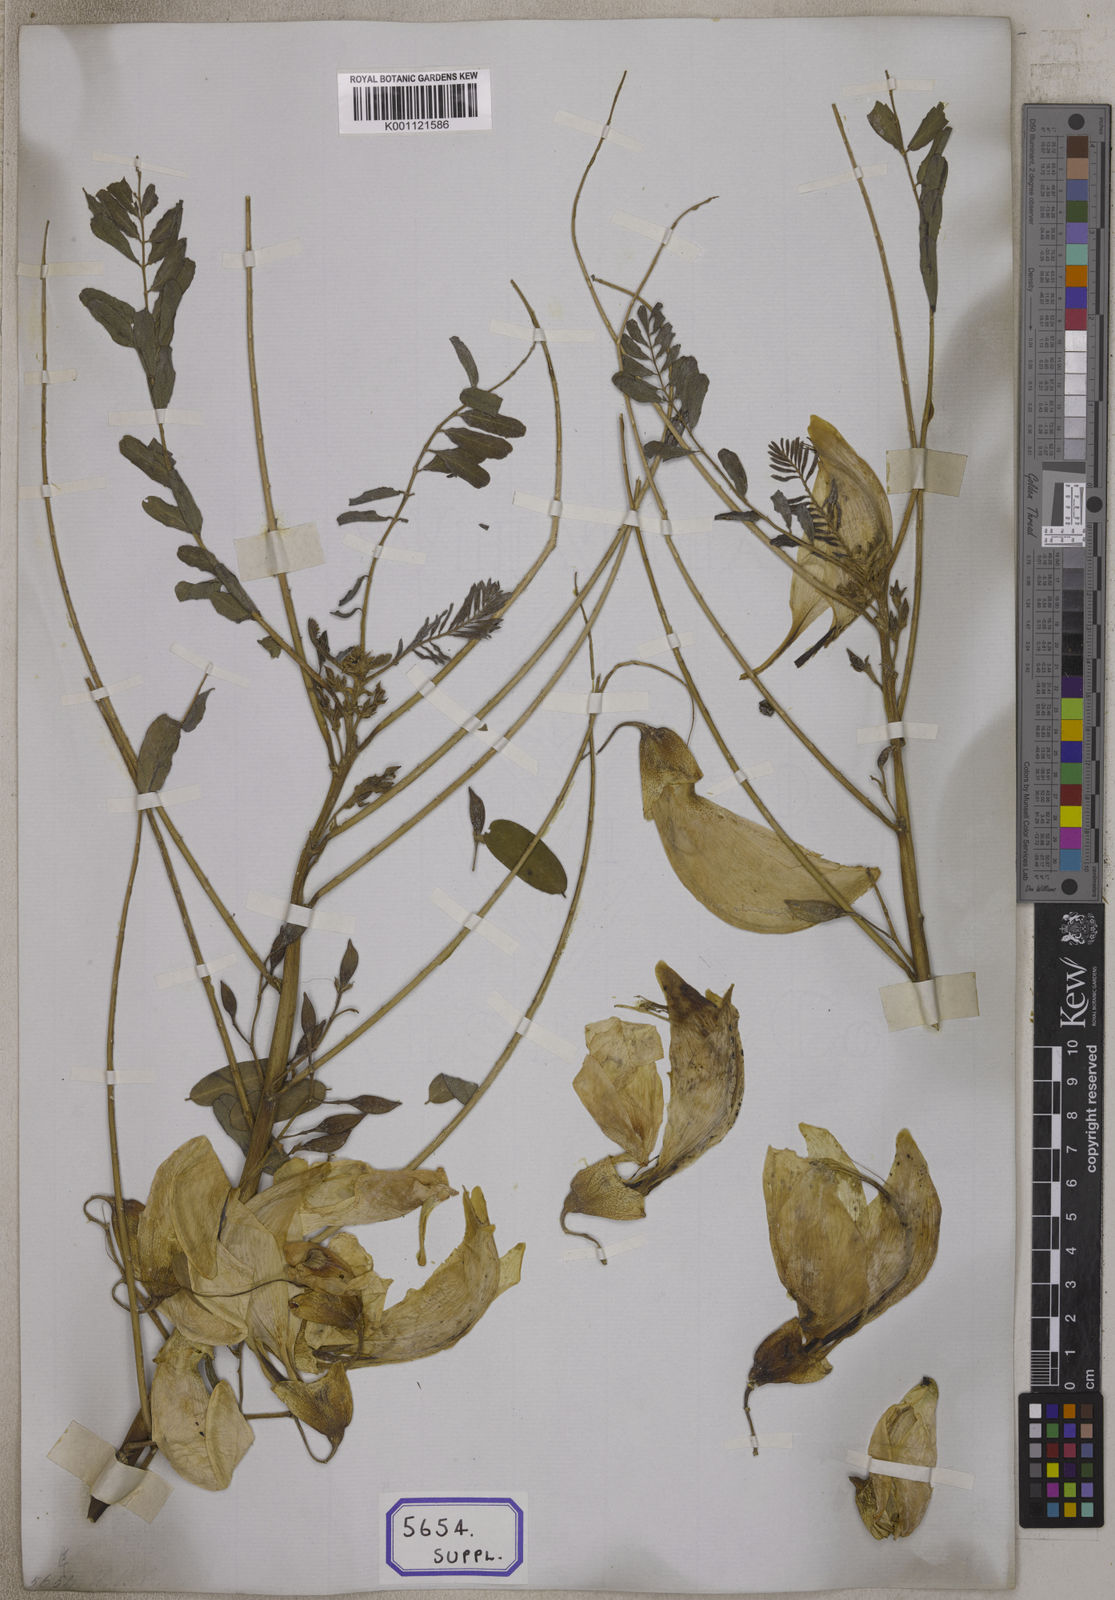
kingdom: Plantae
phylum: Tracheophyta
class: Magnoliopsida
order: Fabales
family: Fabaceae
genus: Sesbania
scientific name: Sesbania grandiflora
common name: Vegetable-hummingbird
